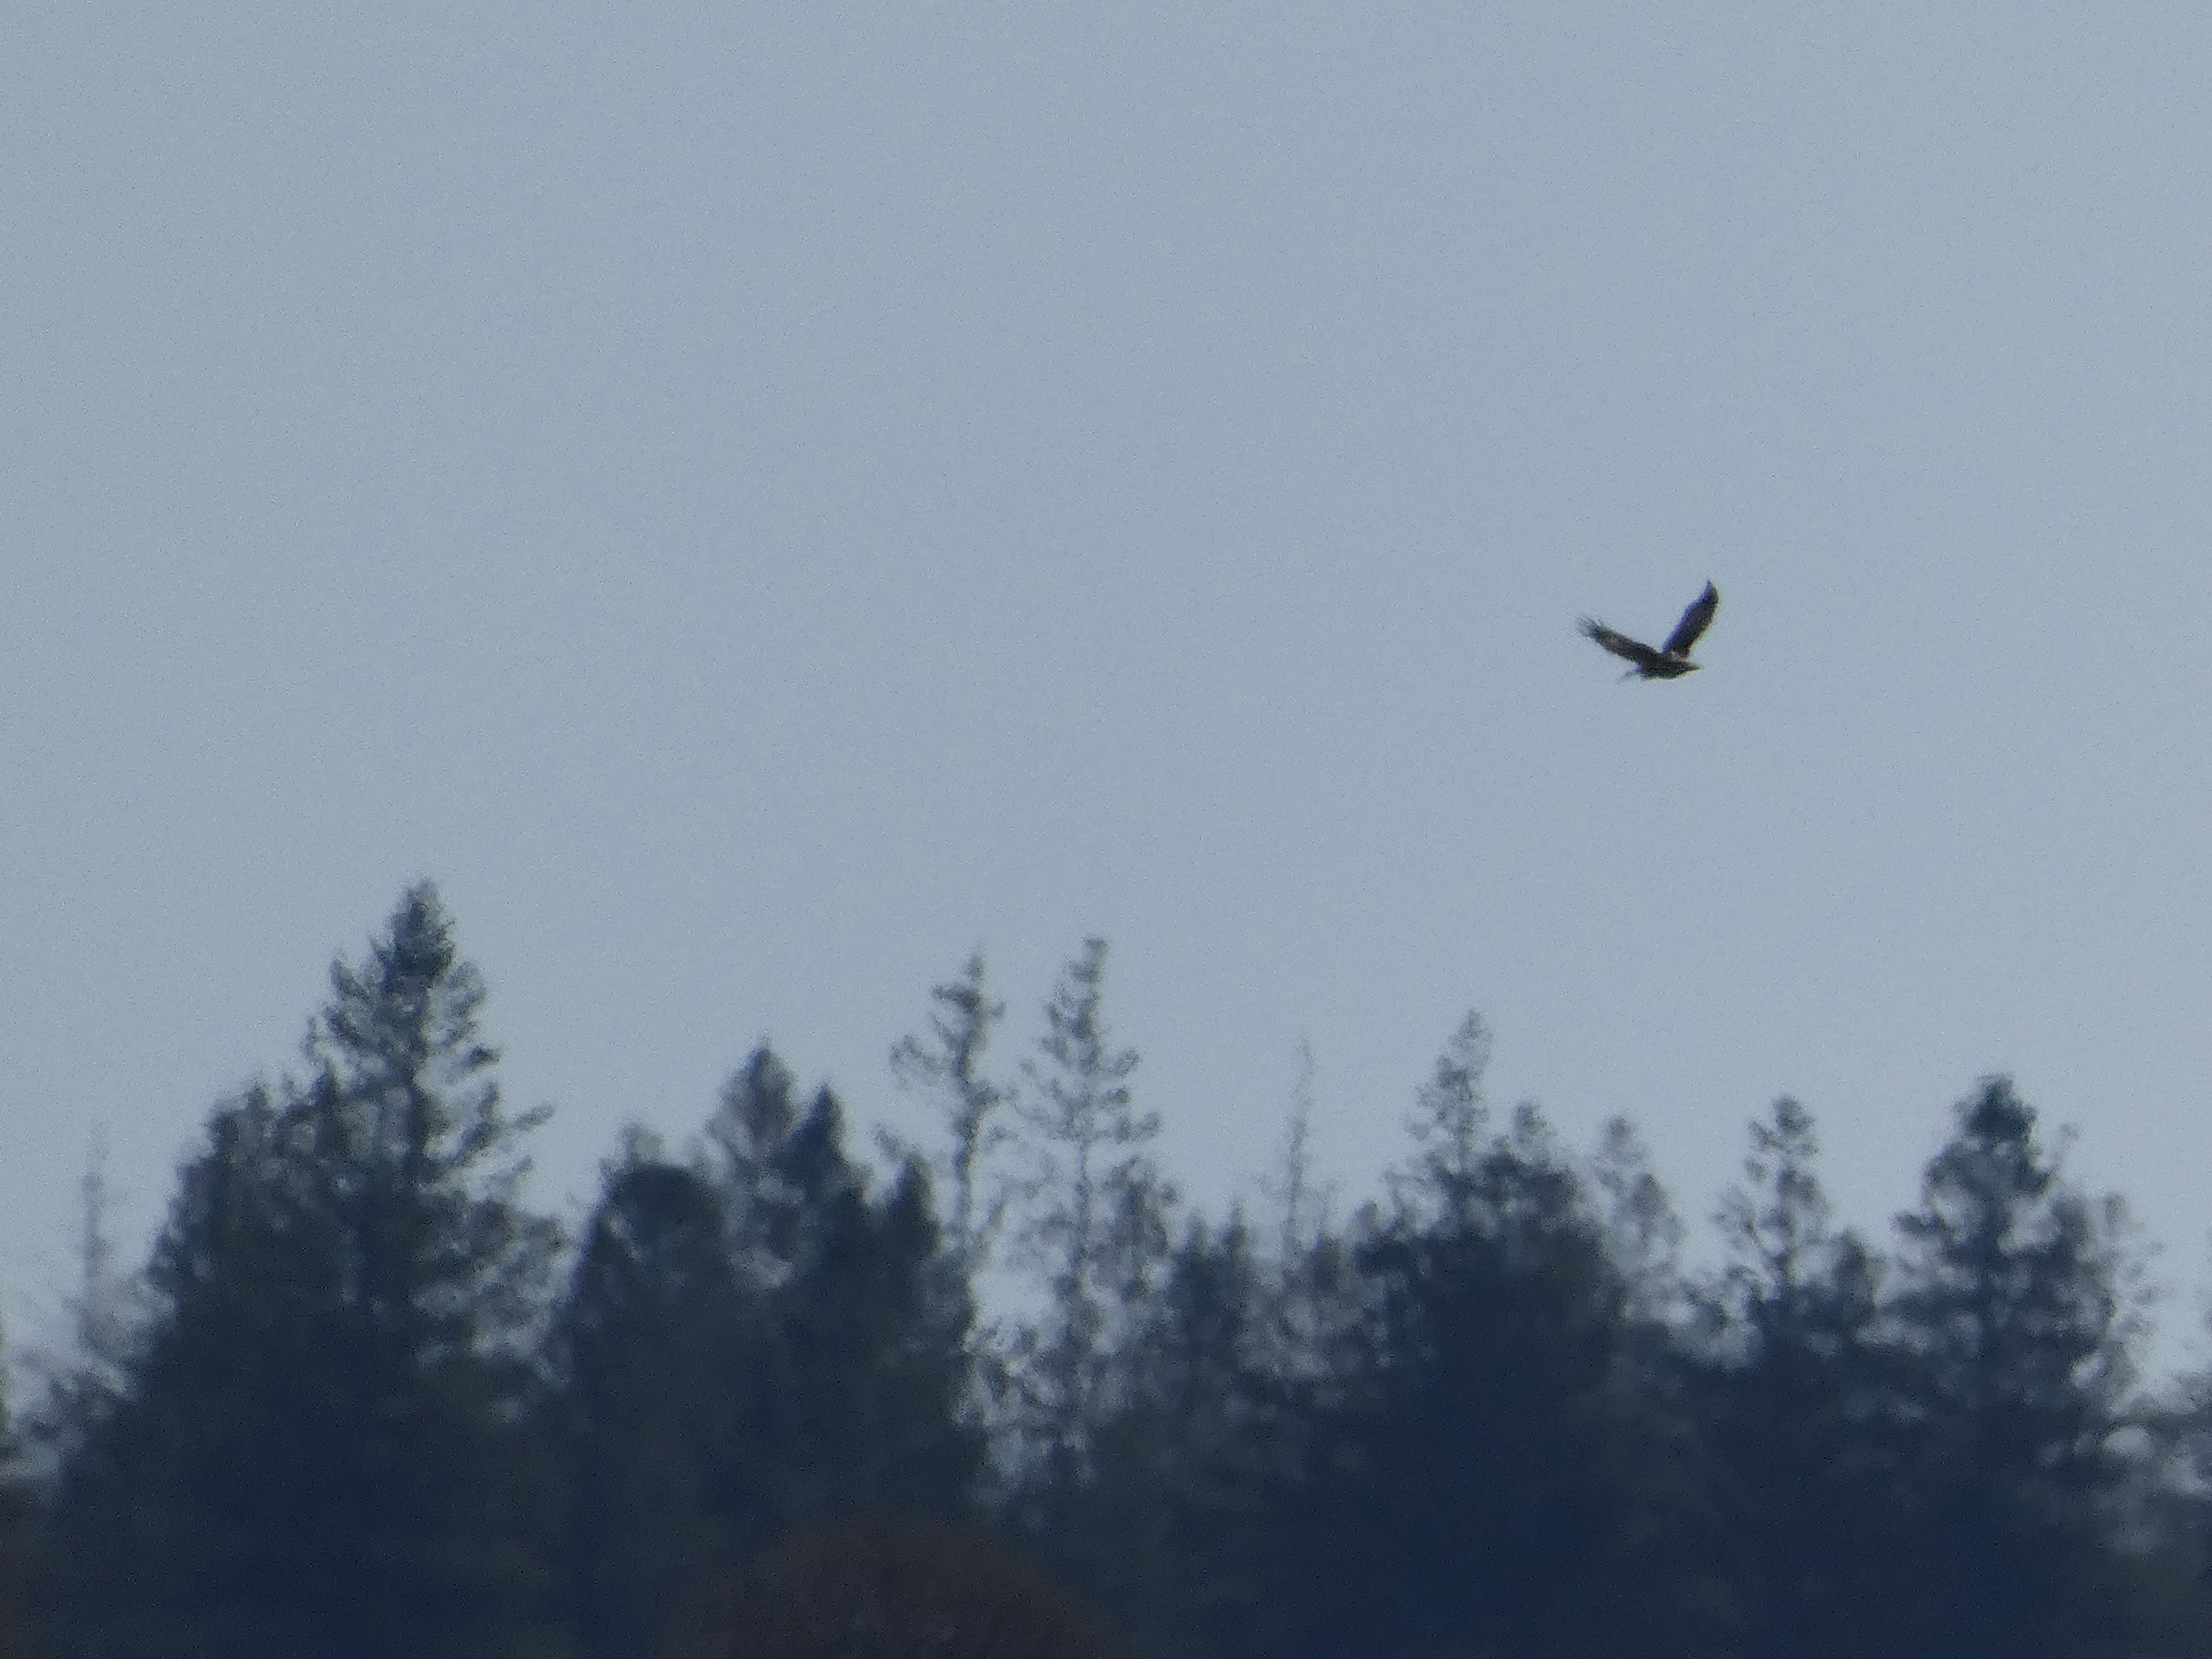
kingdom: Animalia
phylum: Chordata
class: Aves
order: Accipitriformes
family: Accipitridae
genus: Aquila
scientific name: Aquila chrysaetos
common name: Kongeørn
